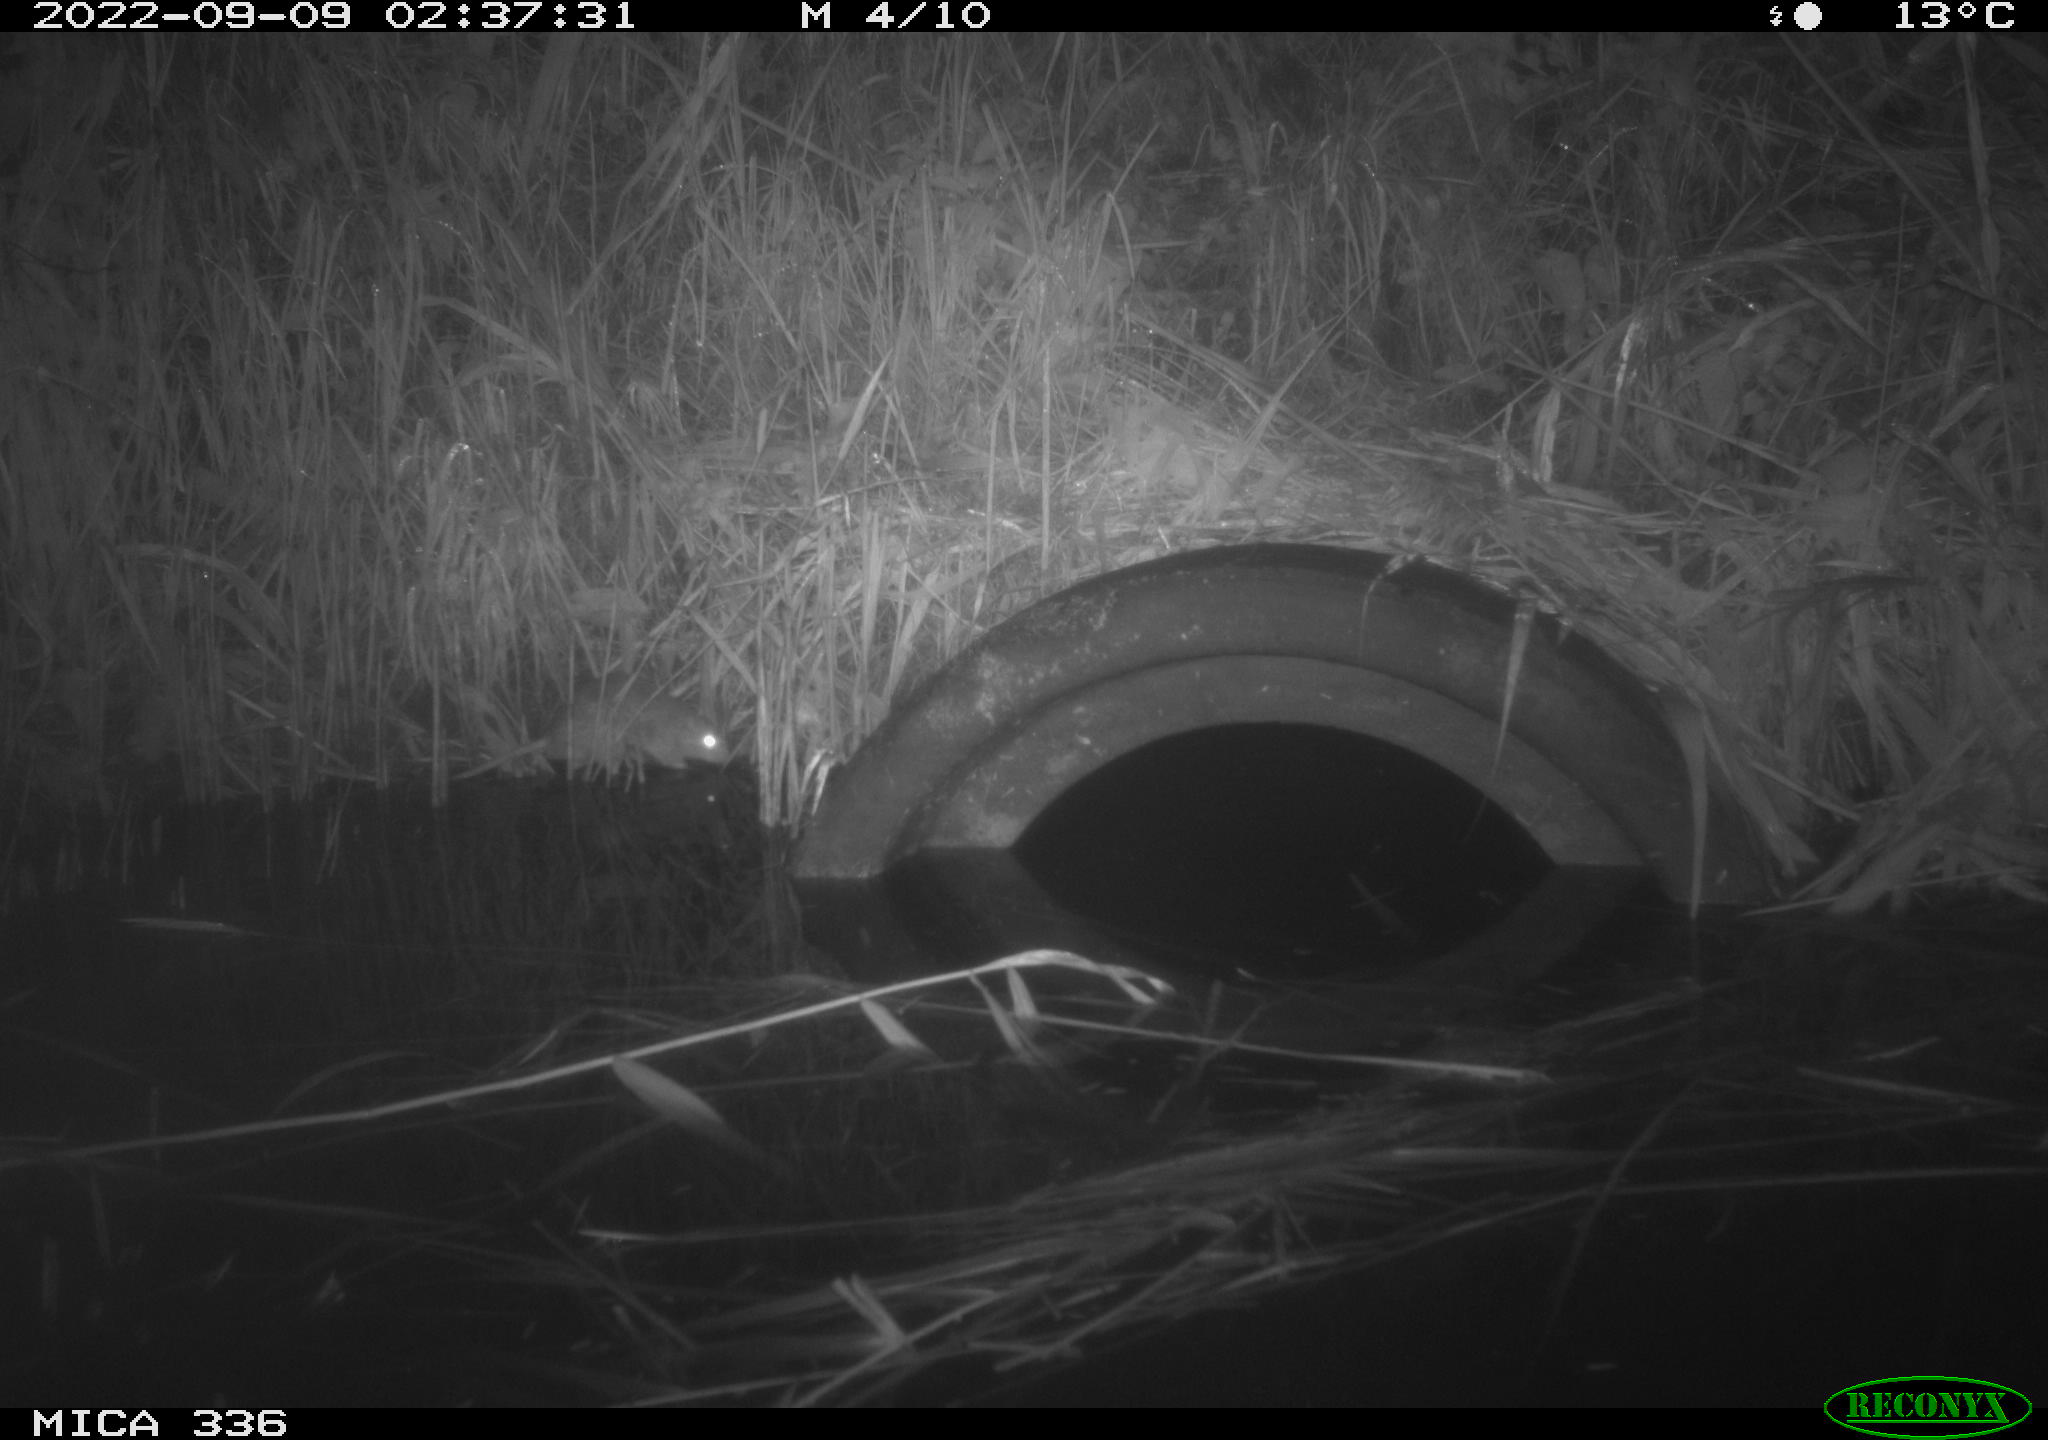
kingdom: Animalia
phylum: Chordata
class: Mammalia
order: Rodentia
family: Muridae
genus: Rattus
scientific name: Rattus norvegicus
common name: Brown rat
